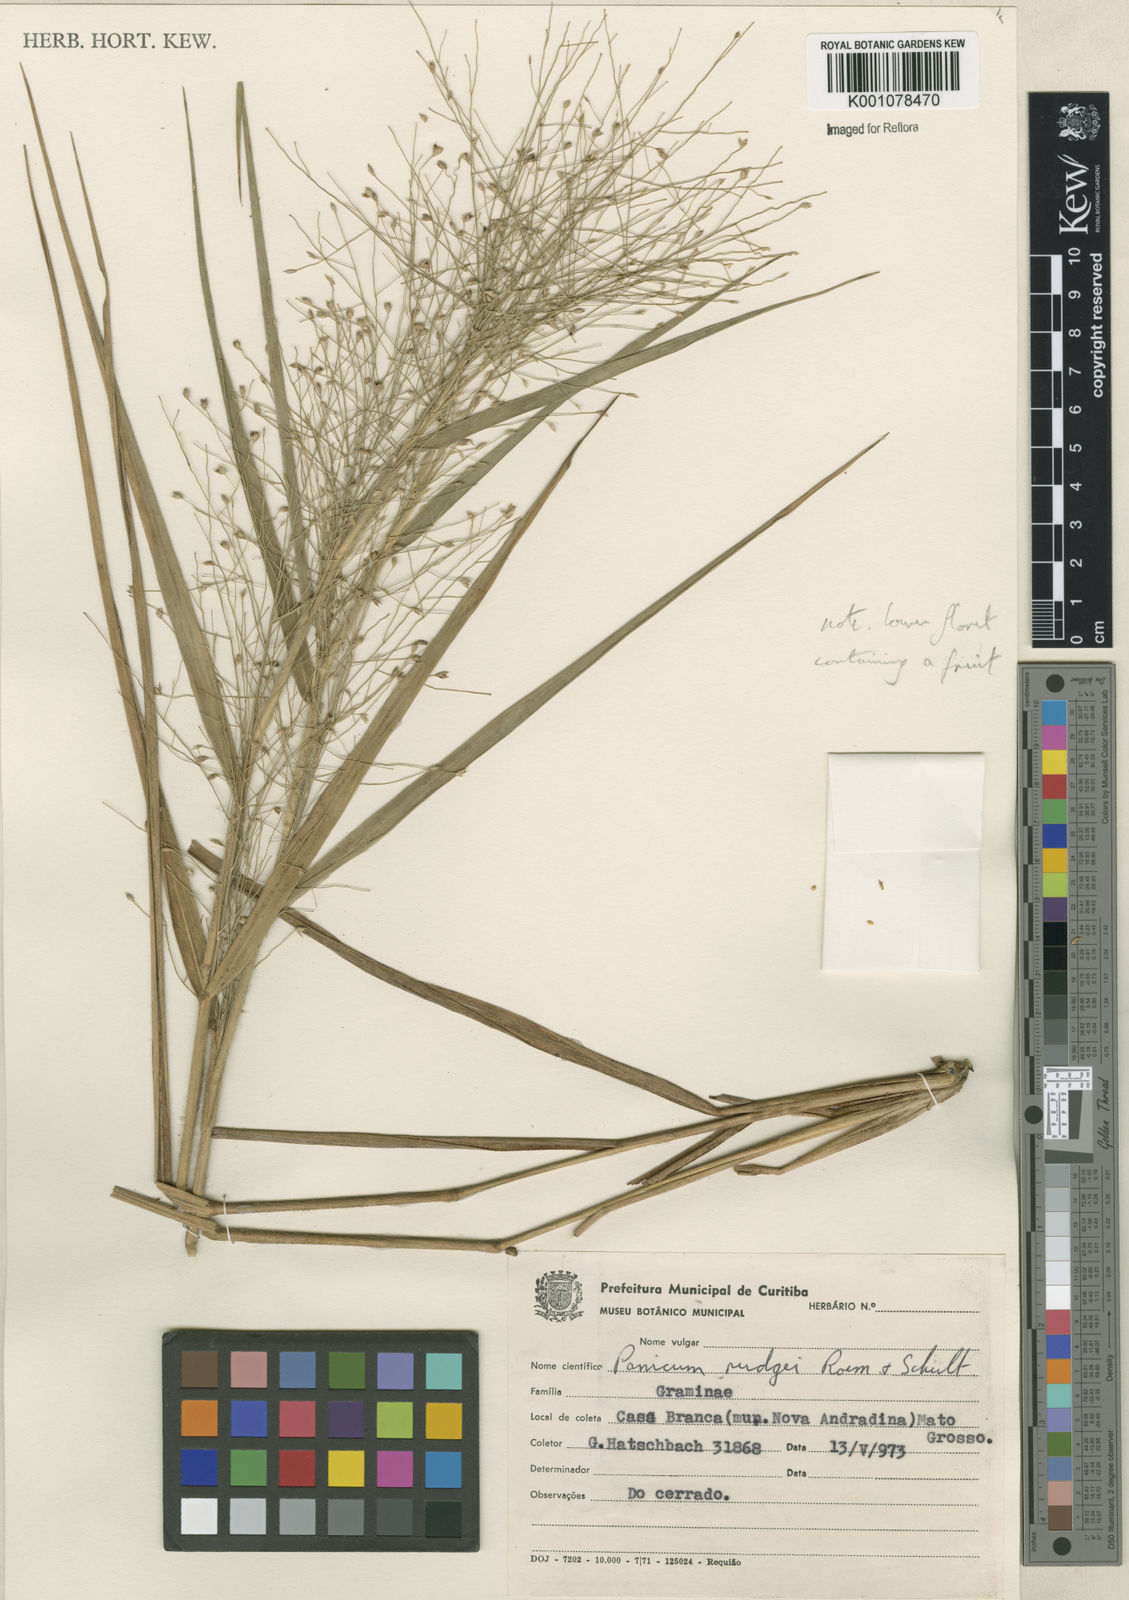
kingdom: Plantae
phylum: Tracheophyta
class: Liliopsida
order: Poales
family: Poaceae
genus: Panicum
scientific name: Panicum rudgei
